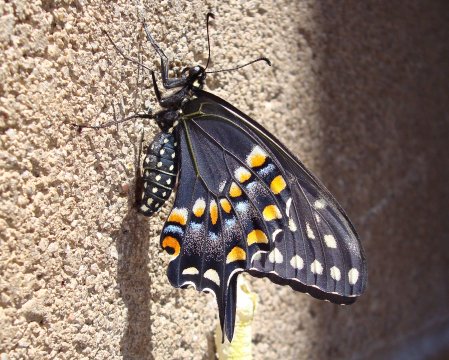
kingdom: Animalia
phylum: Arthropoda
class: Insecta
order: Lepidoptera
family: Papilionidae
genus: Papilio
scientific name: Papilio polyxenes
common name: Black Swallowtail
